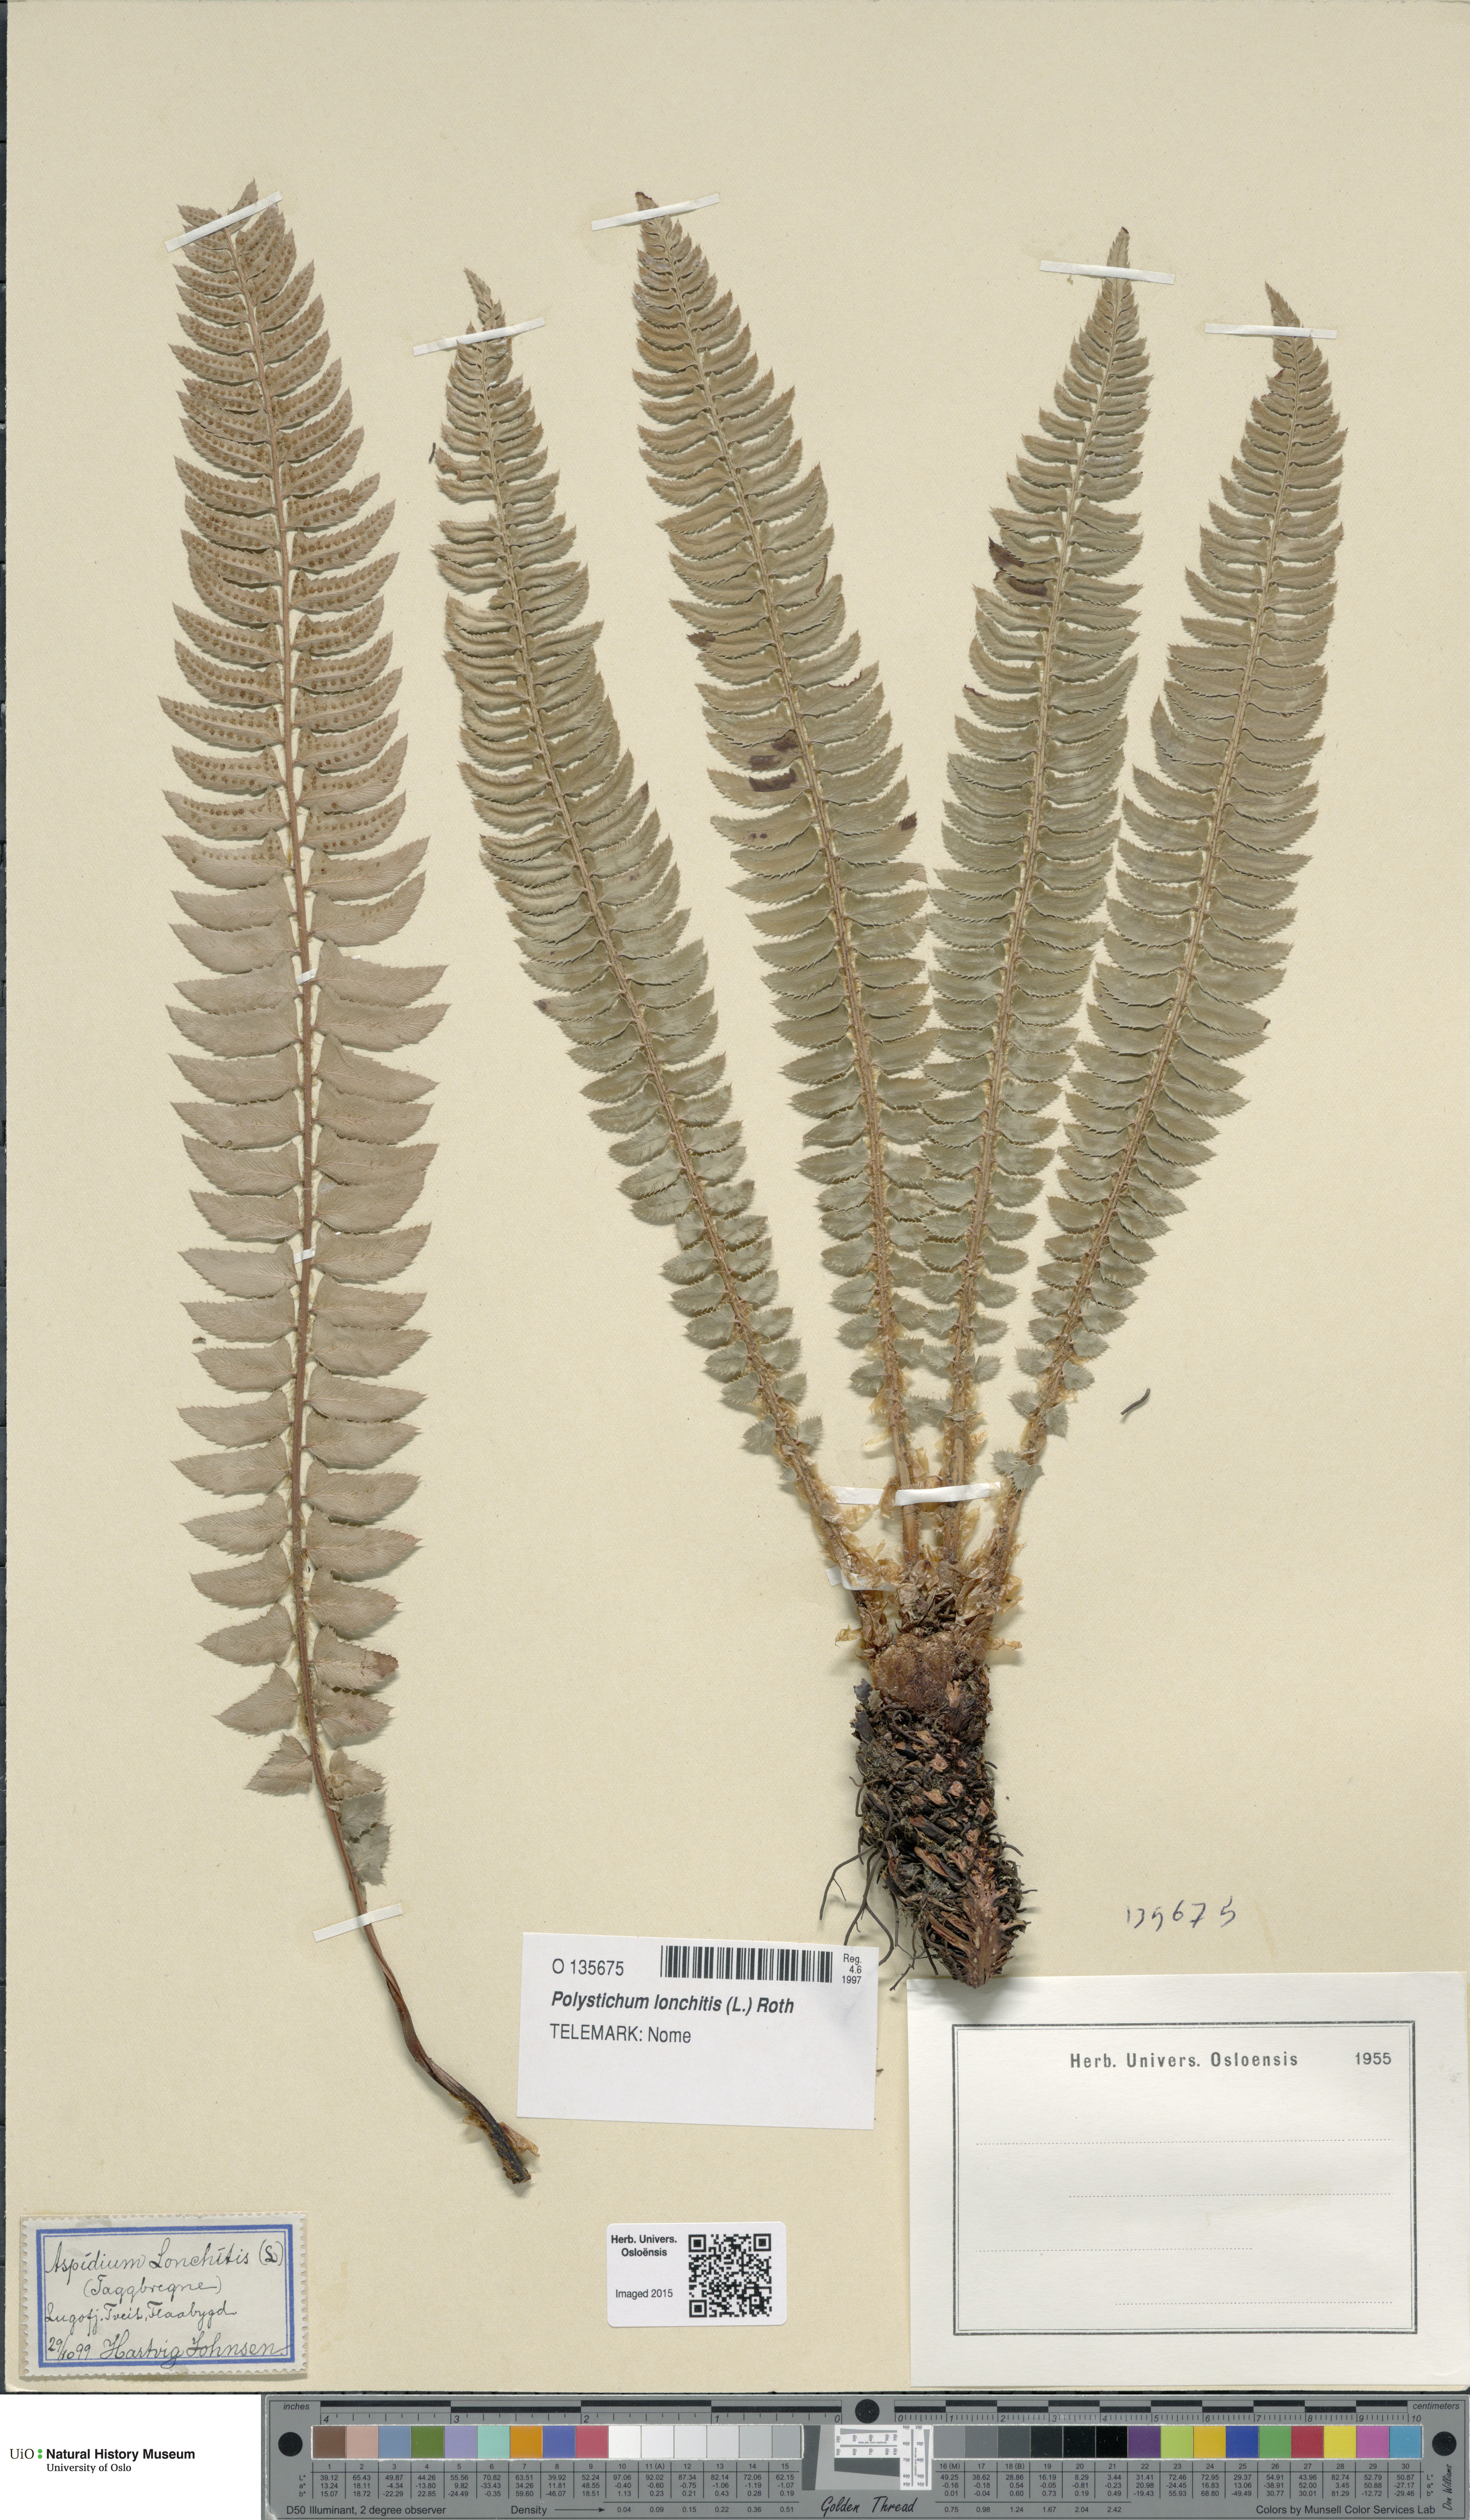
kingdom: Plantae
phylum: Tracheophyta
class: Polypodiopsida
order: Polypodiales
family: Dryopteridaceae
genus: Polystichum
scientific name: Polystichum lonchitis
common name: Holly fern
